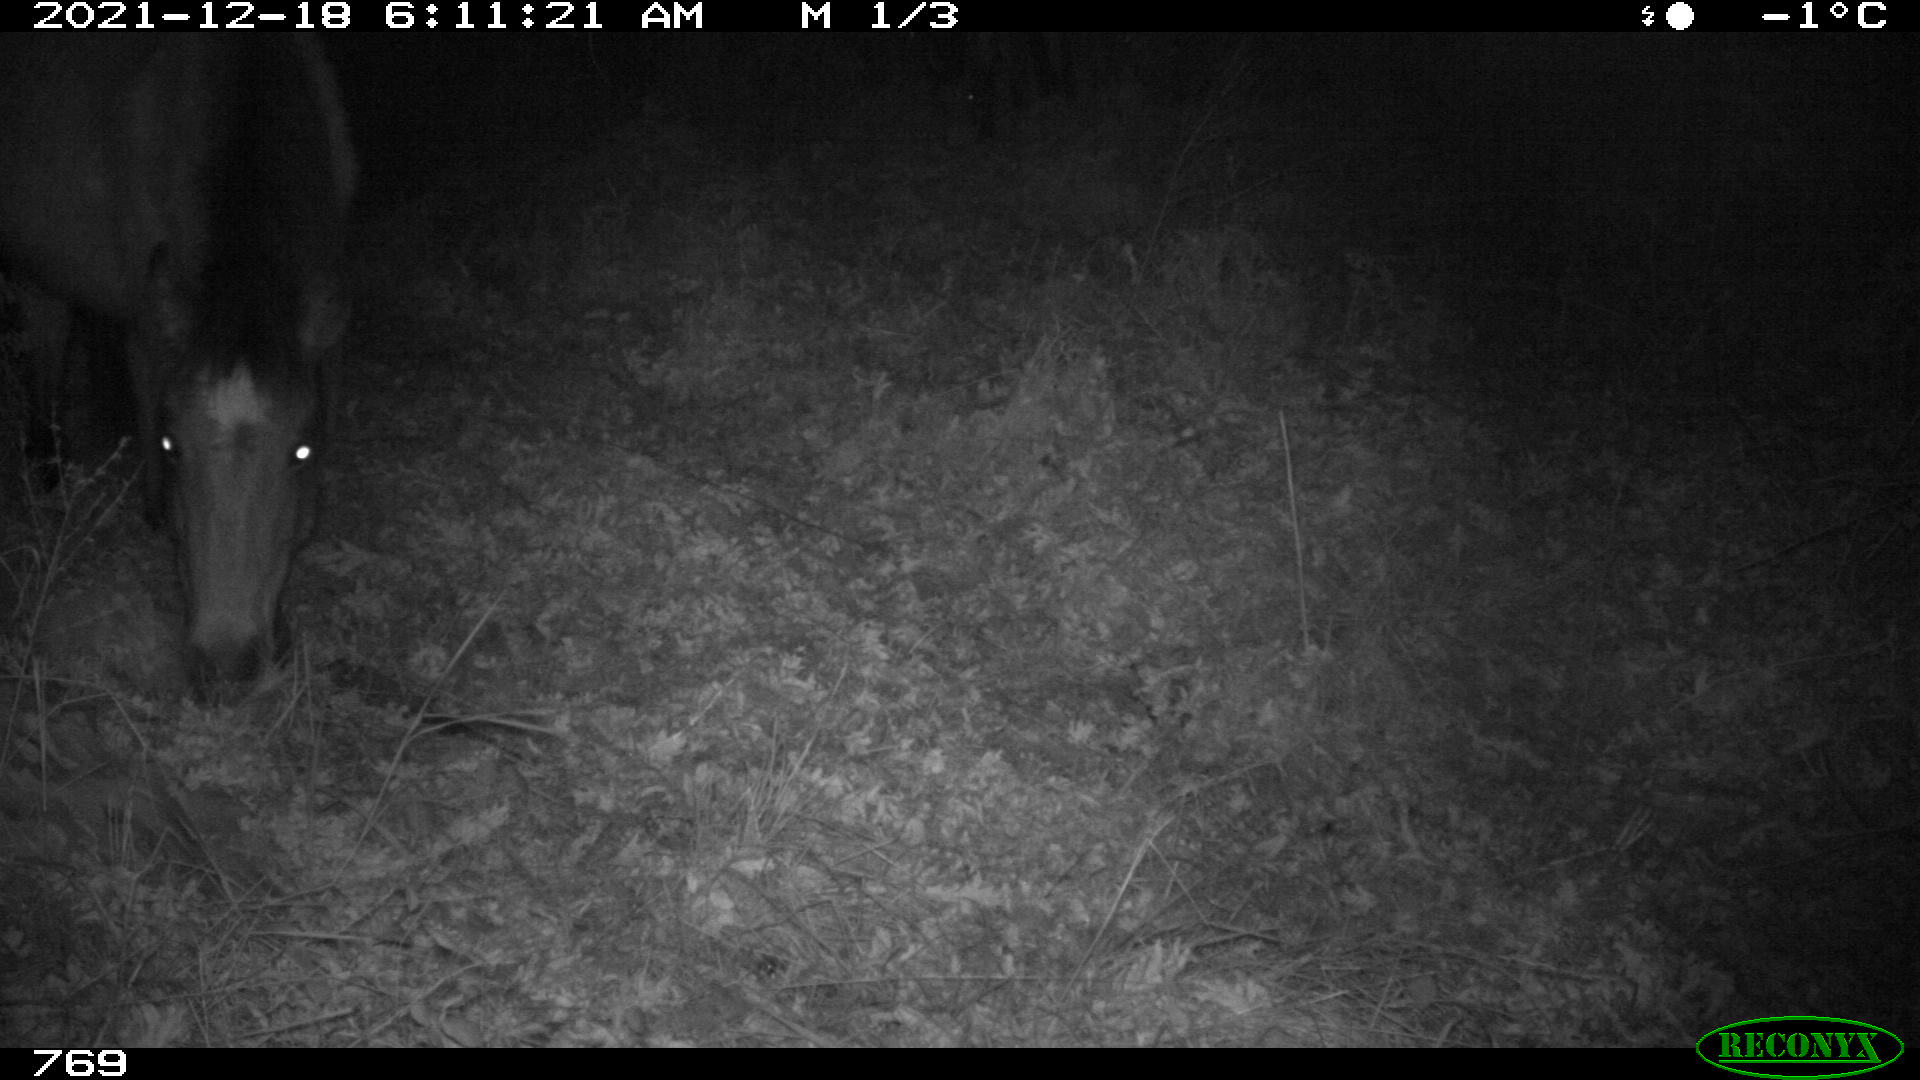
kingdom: Animalia
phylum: Chordata
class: Mammalia
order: Perissodactyla
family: Equidae
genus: Equus
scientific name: Equus caballus
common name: Horse
